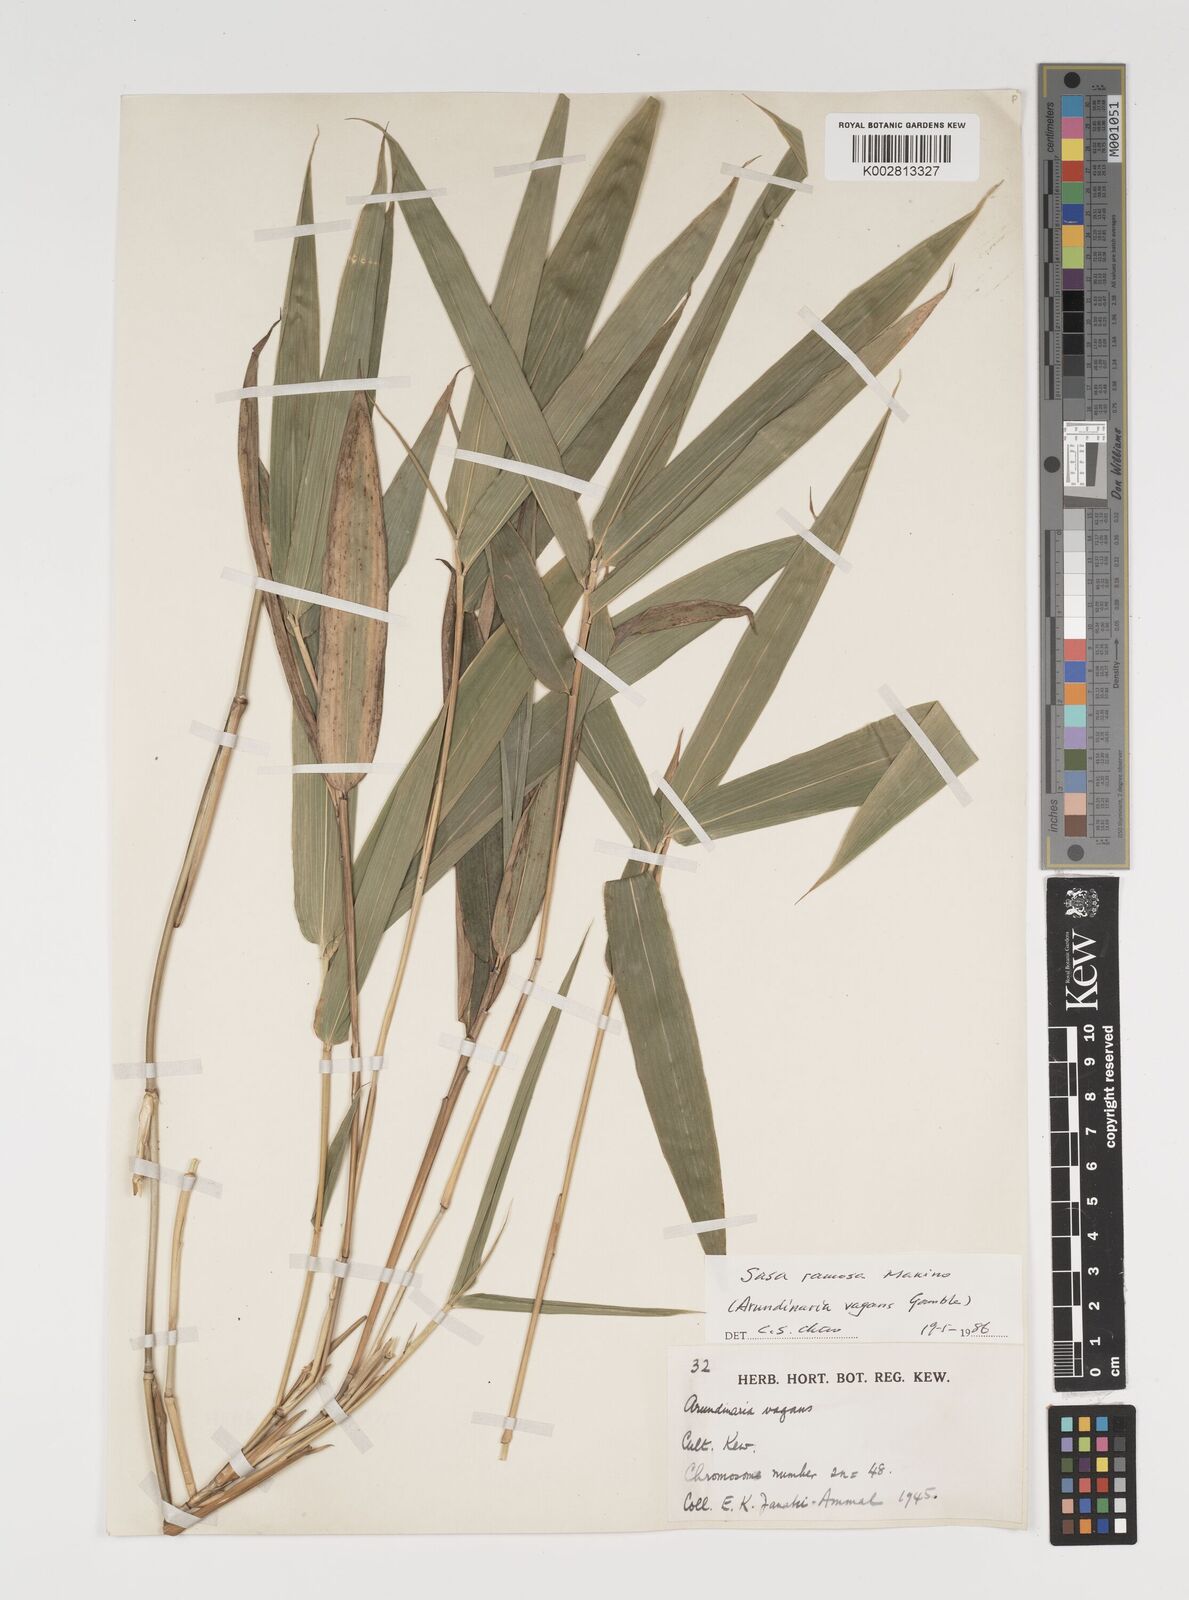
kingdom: Plantae
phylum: Tracheophyta
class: Liliopsida
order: Poales
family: Poaceae
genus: Sasaella
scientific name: Sasaella ramosa
